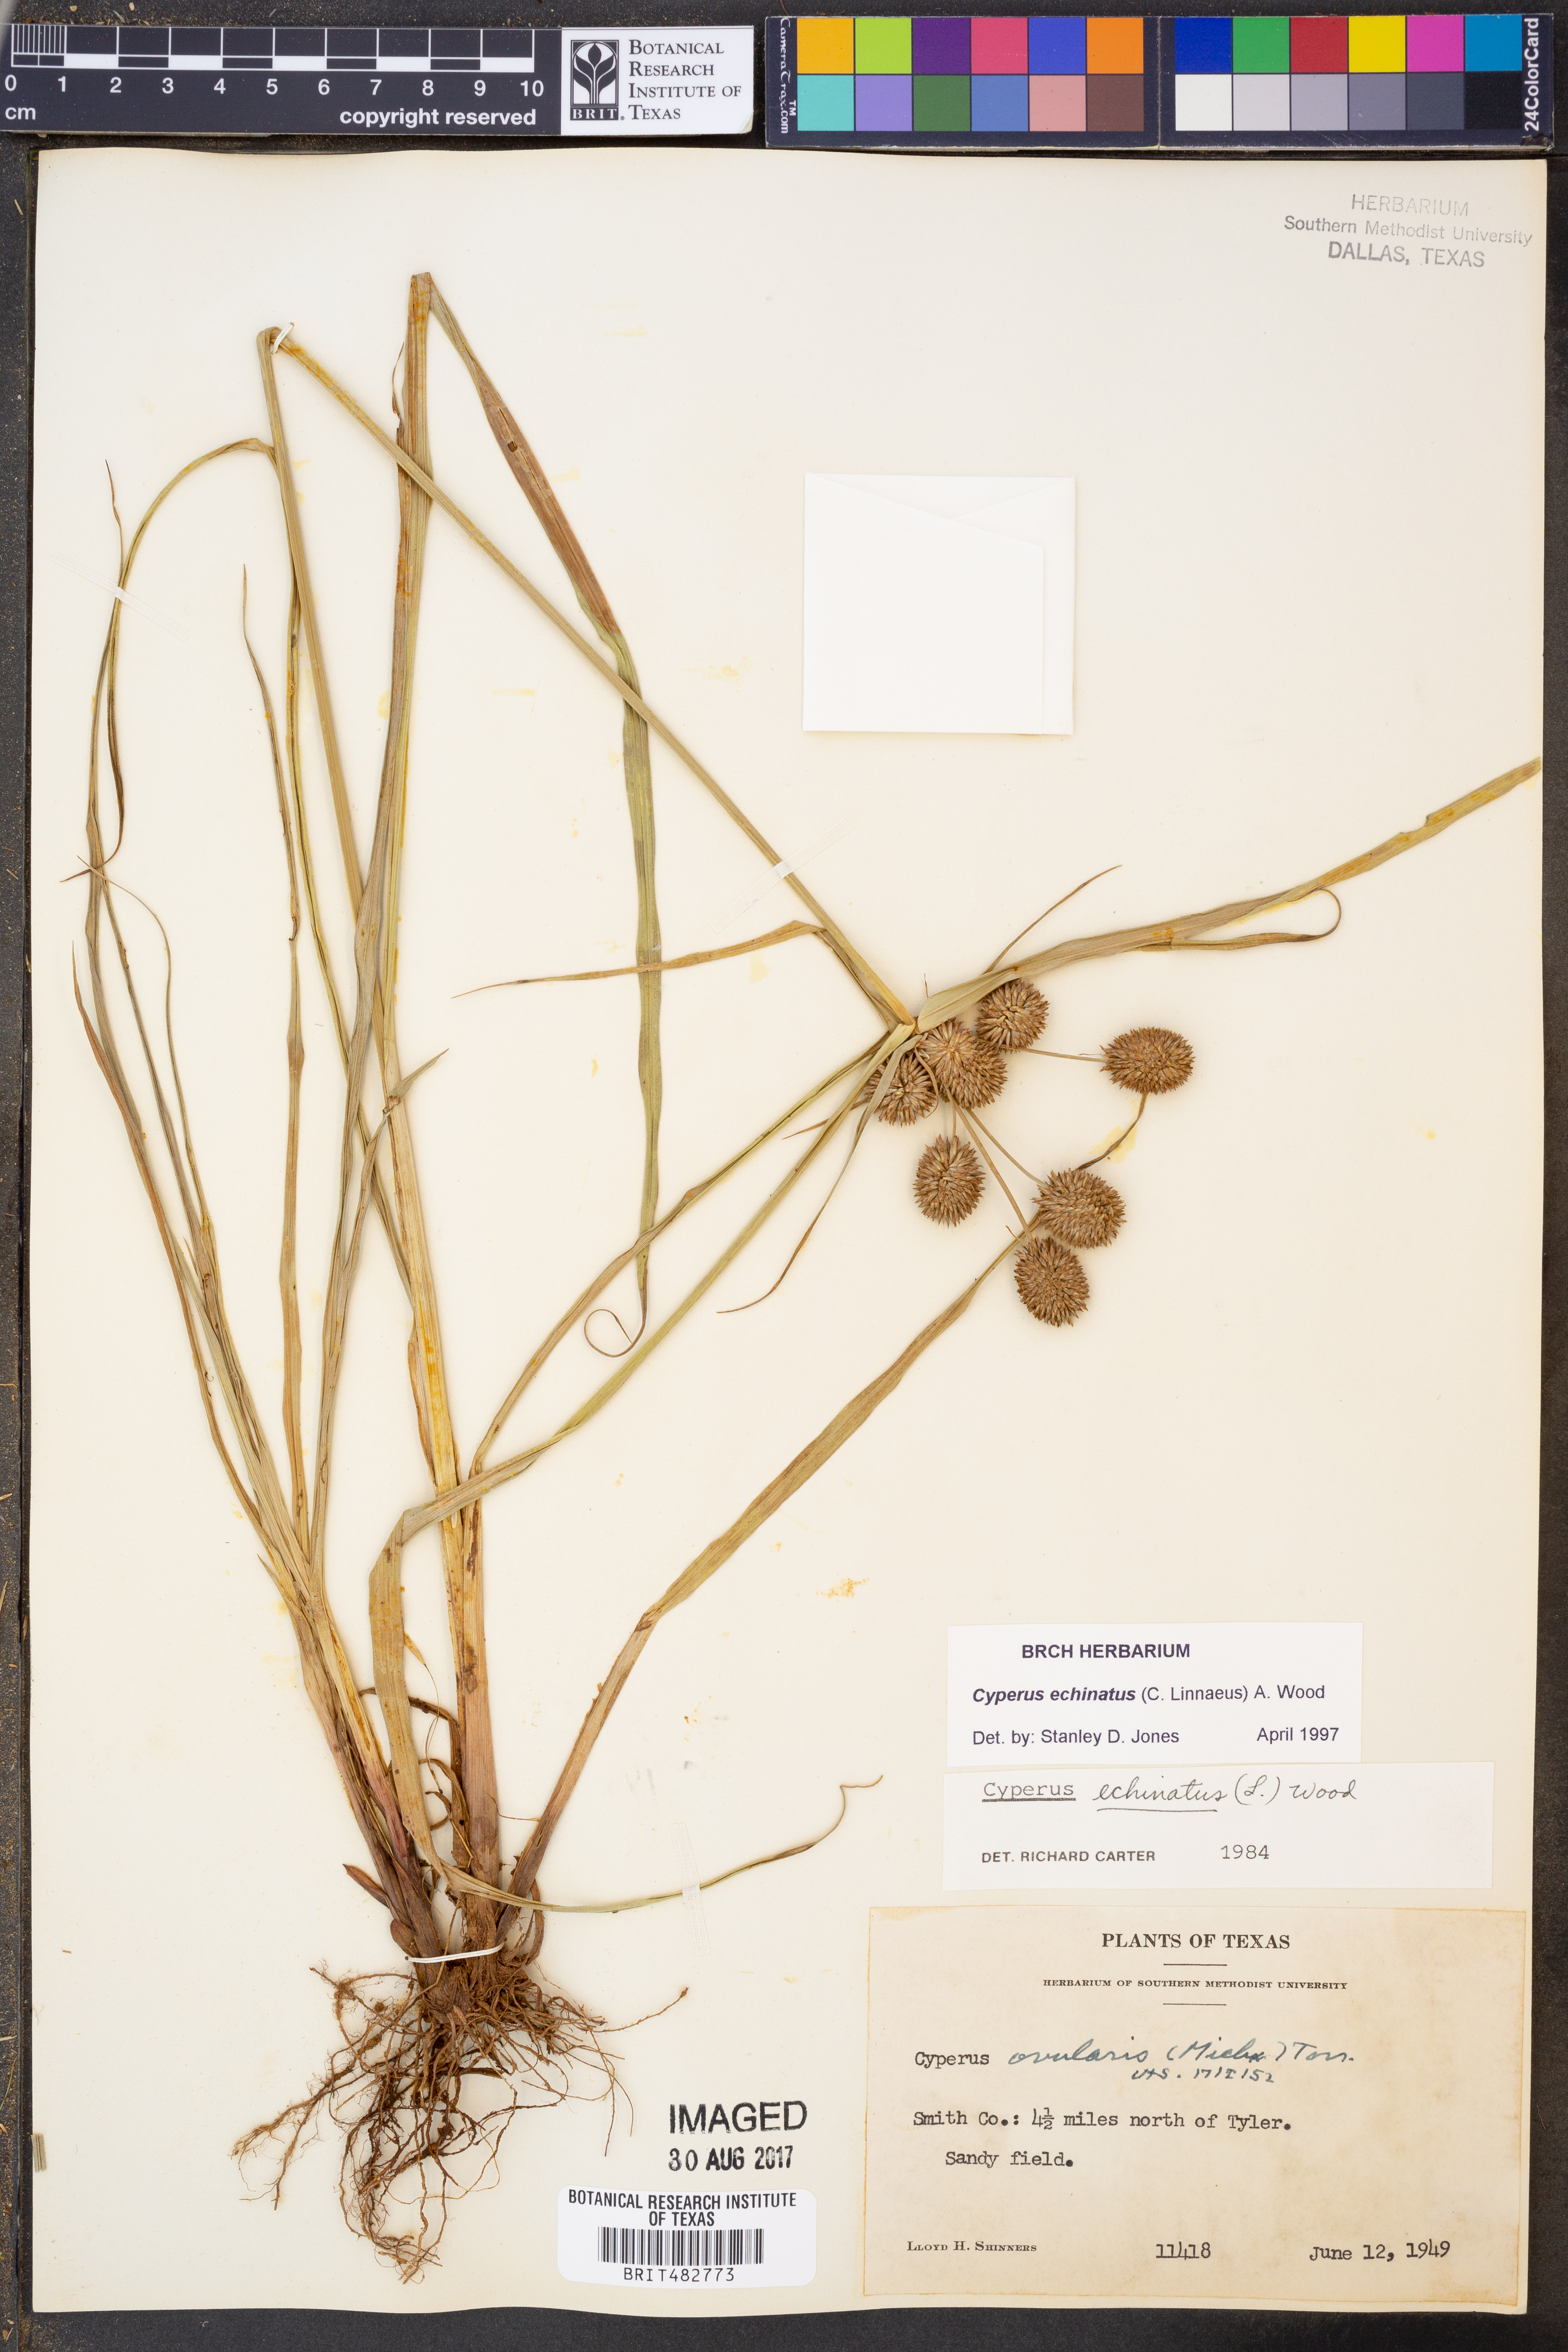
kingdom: Plantae
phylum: Tracheophyta
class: Liliopsida
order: Poales
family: Cyperaceae
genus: Cyperus
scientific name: Cyperus echinatus
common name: Teasel sedge
